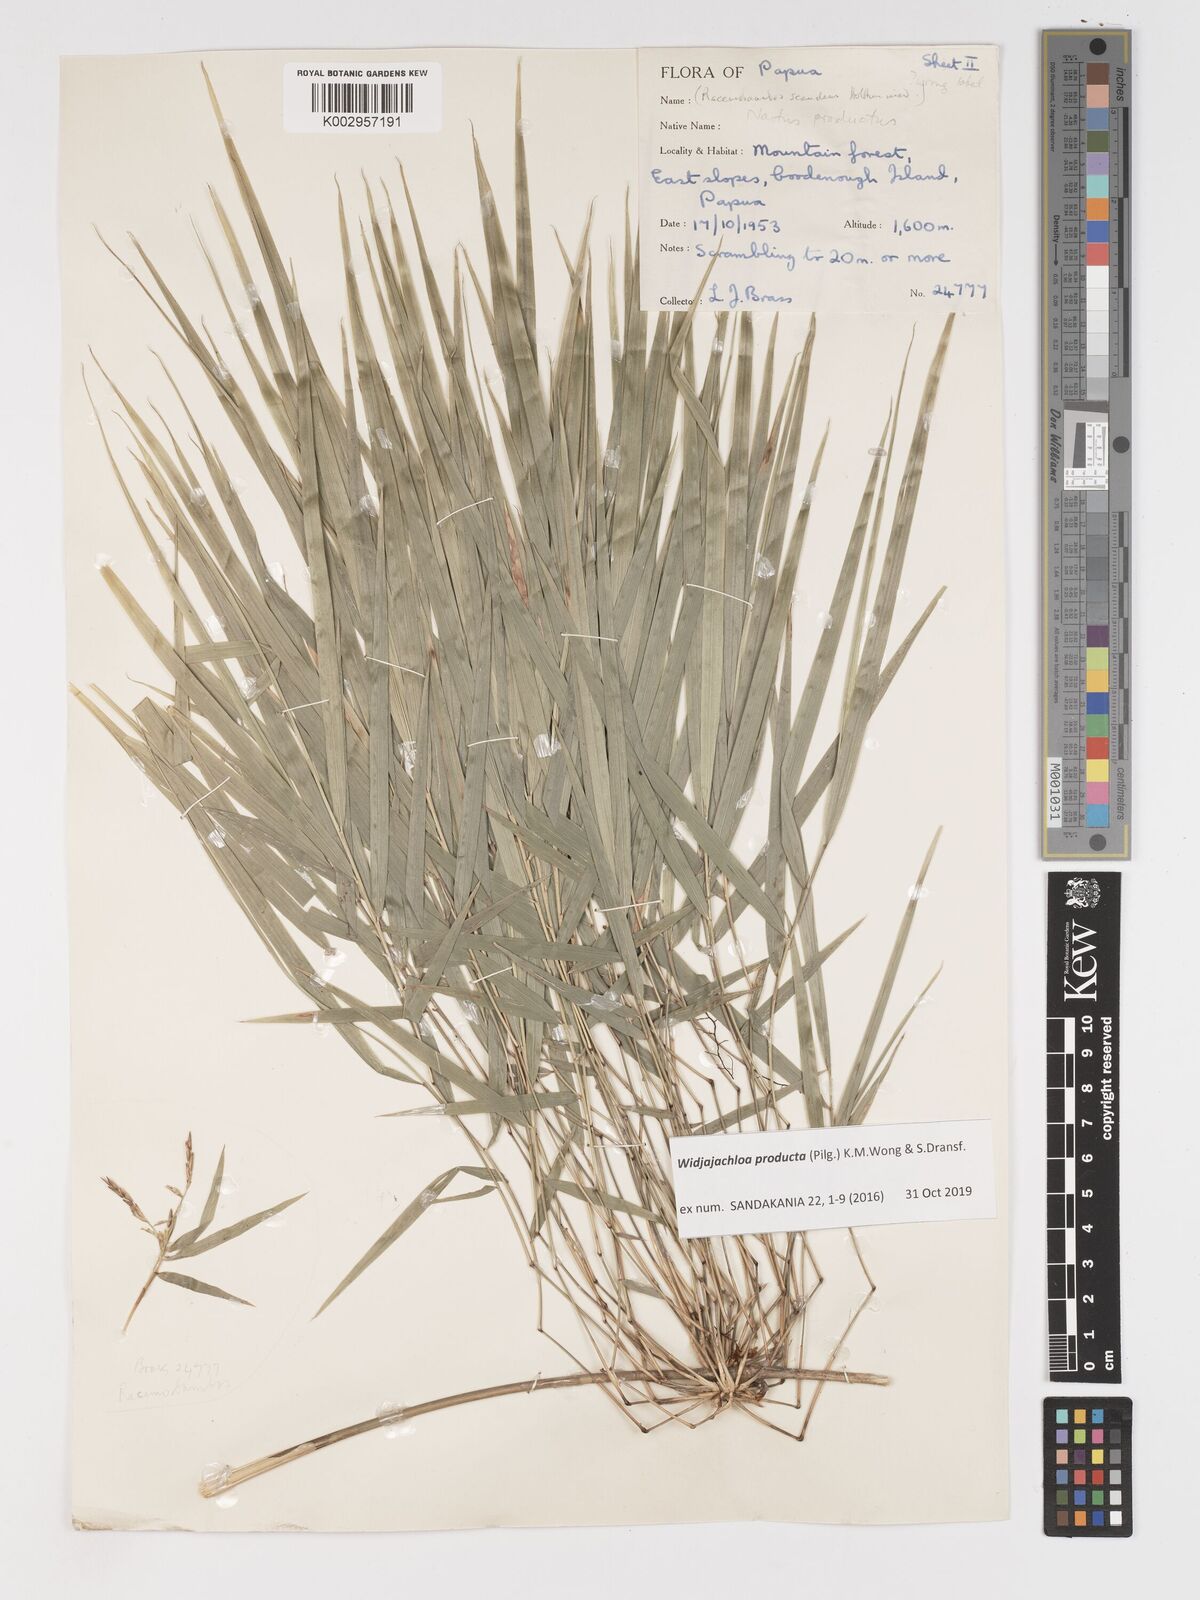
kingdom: Plantae
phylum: Tracheophyta
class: Liliopsida
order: Poales
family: Poaceae
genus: Widjajachloa
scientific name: Widjajachloa producta
